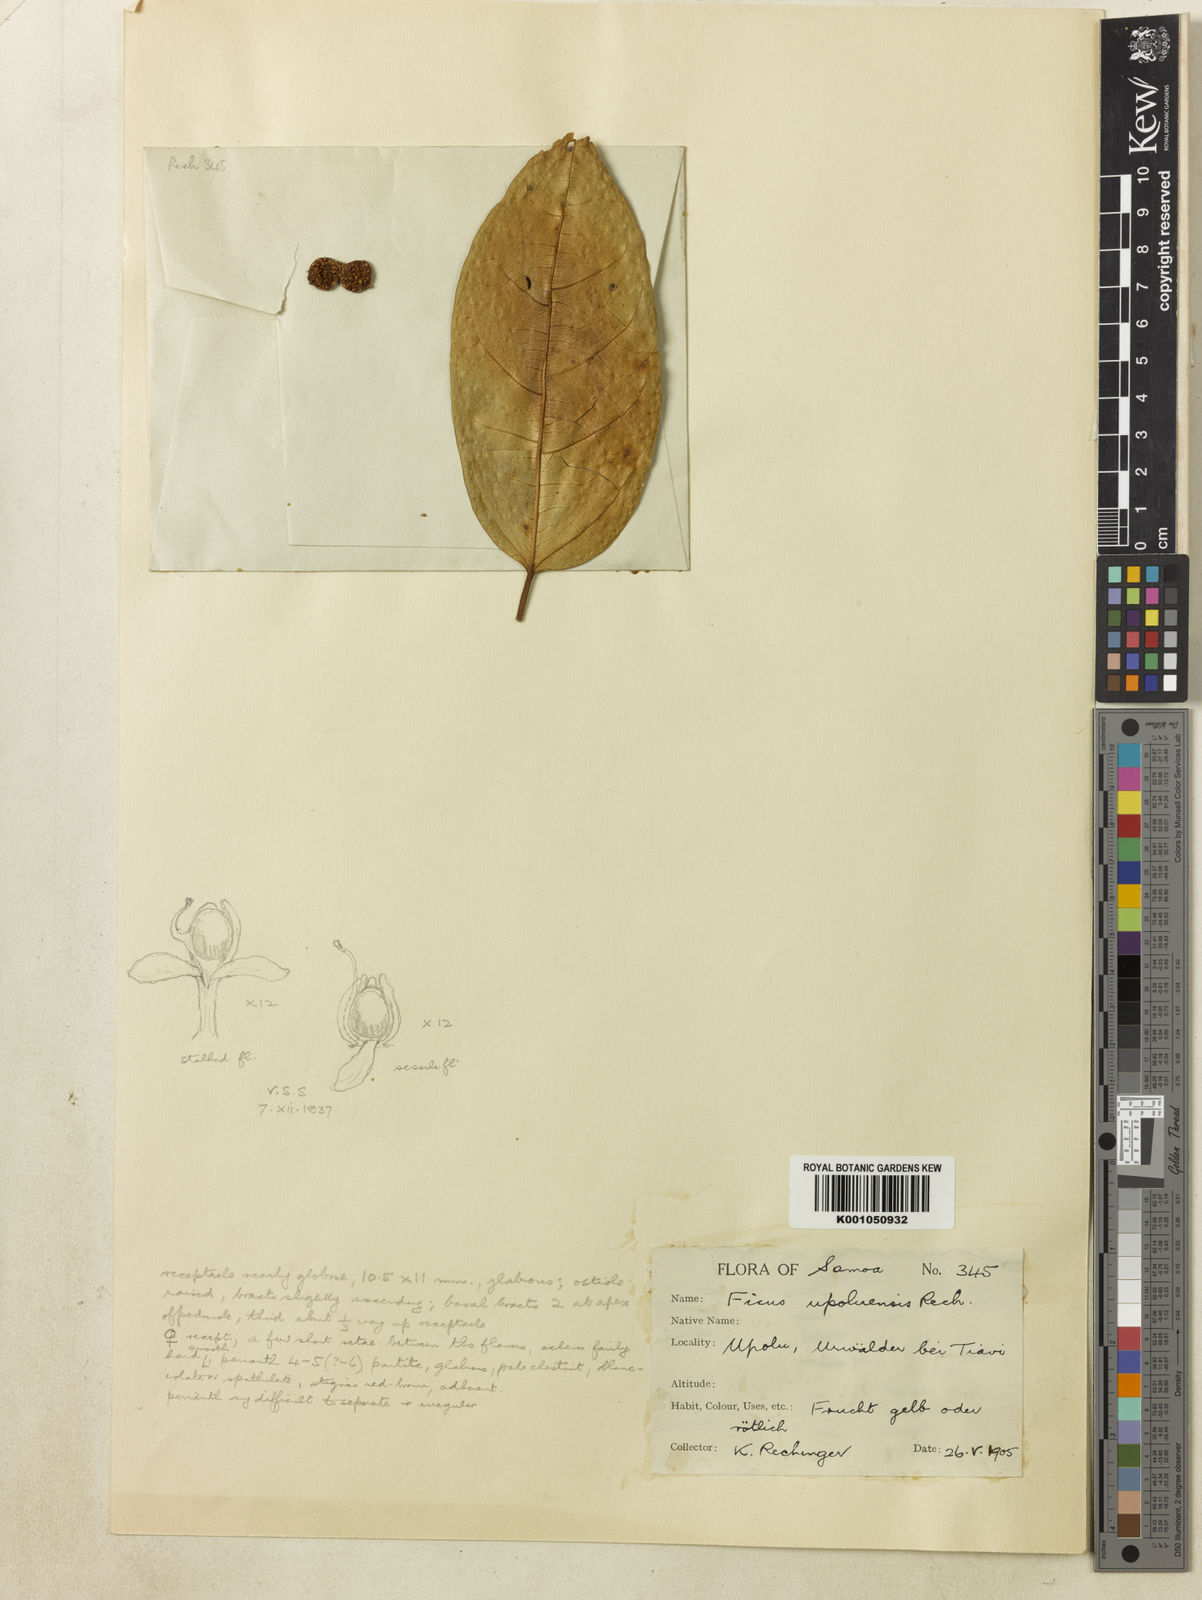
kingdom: Plantae
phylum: Tracheophyta
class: Magnoliopsida
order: Rosales
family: Moraceae
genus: Ficus
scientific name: Ficus godeffroyi
